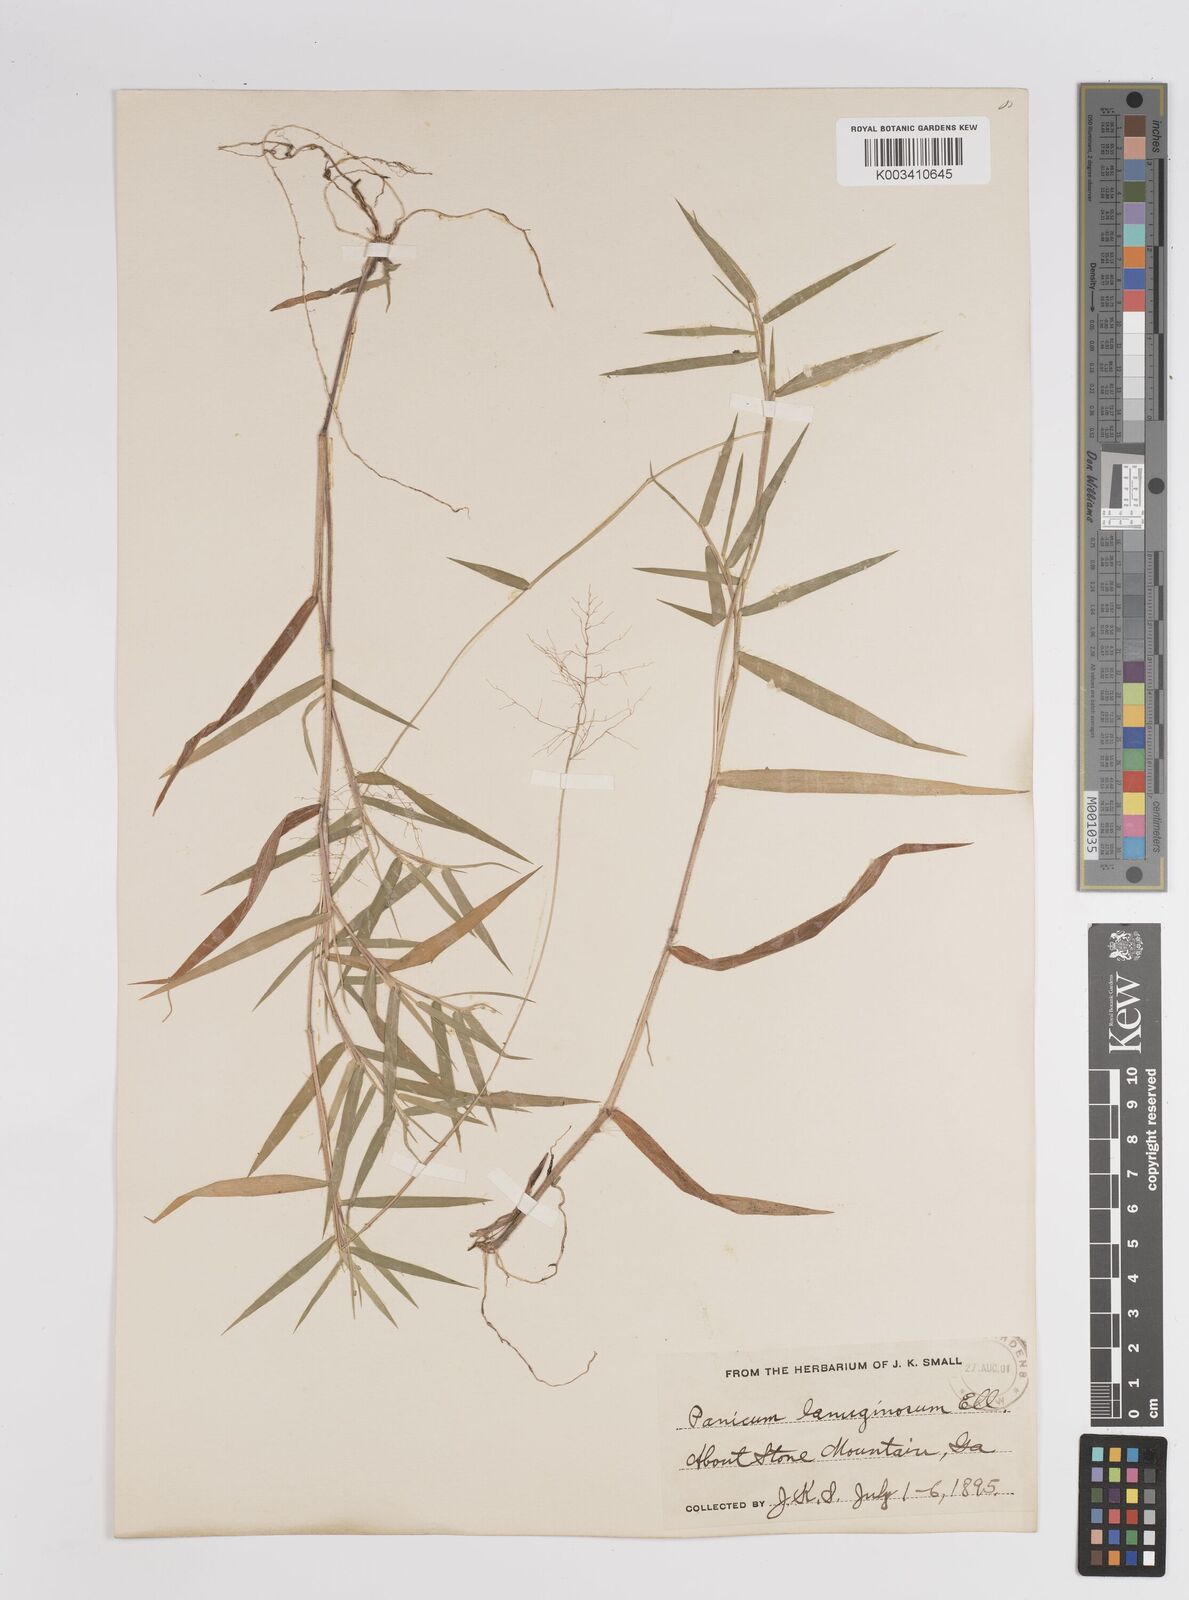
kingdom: Plantae
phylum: Tracheophyta
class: Liliopsida
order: Poales
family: Poaceae
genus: Dichanthelium
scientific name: Dichanthelium lanuginosum
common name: Woolly panicgrass
